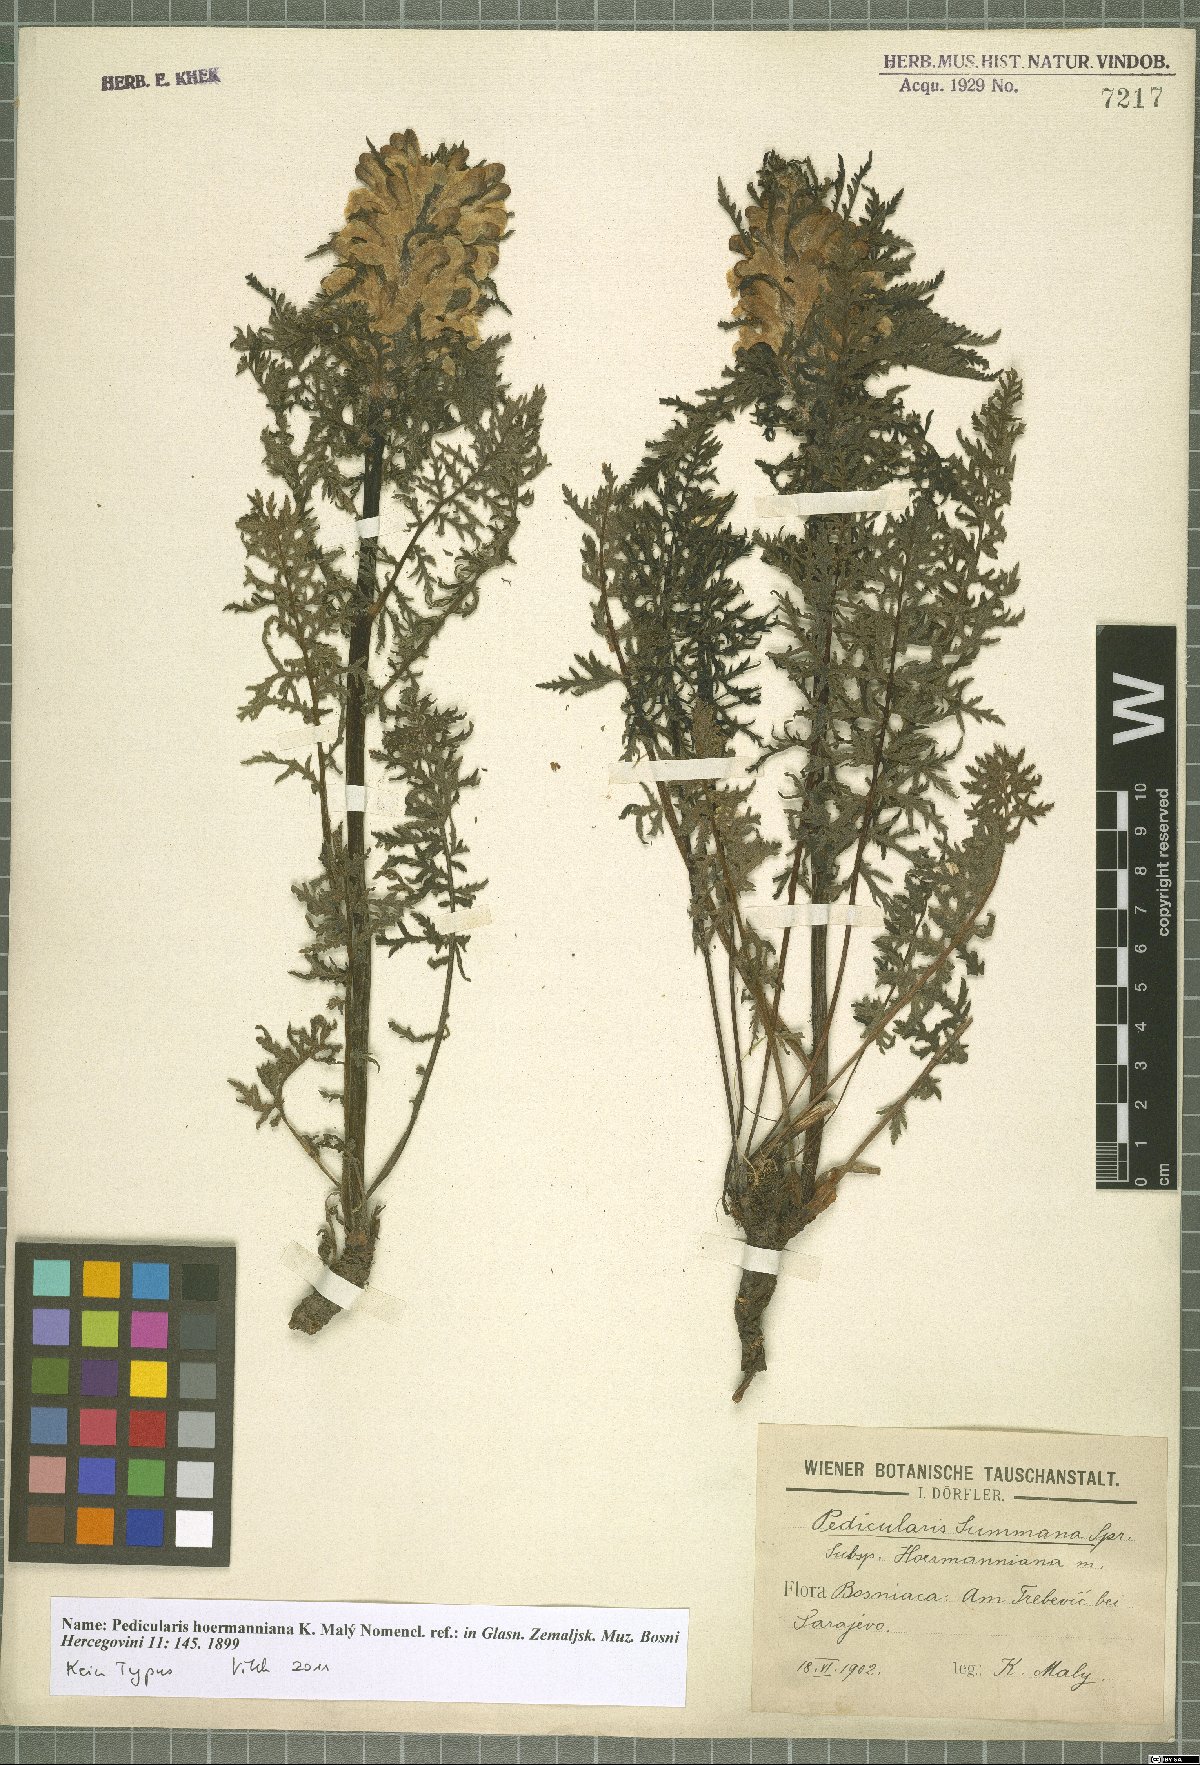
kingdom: Plantae
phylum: Tracheophyta
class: Magnoliopsida
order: Lamiales
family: Orobanchaceae
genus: Pedicularis
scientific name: Pedicularis hoermanniana
